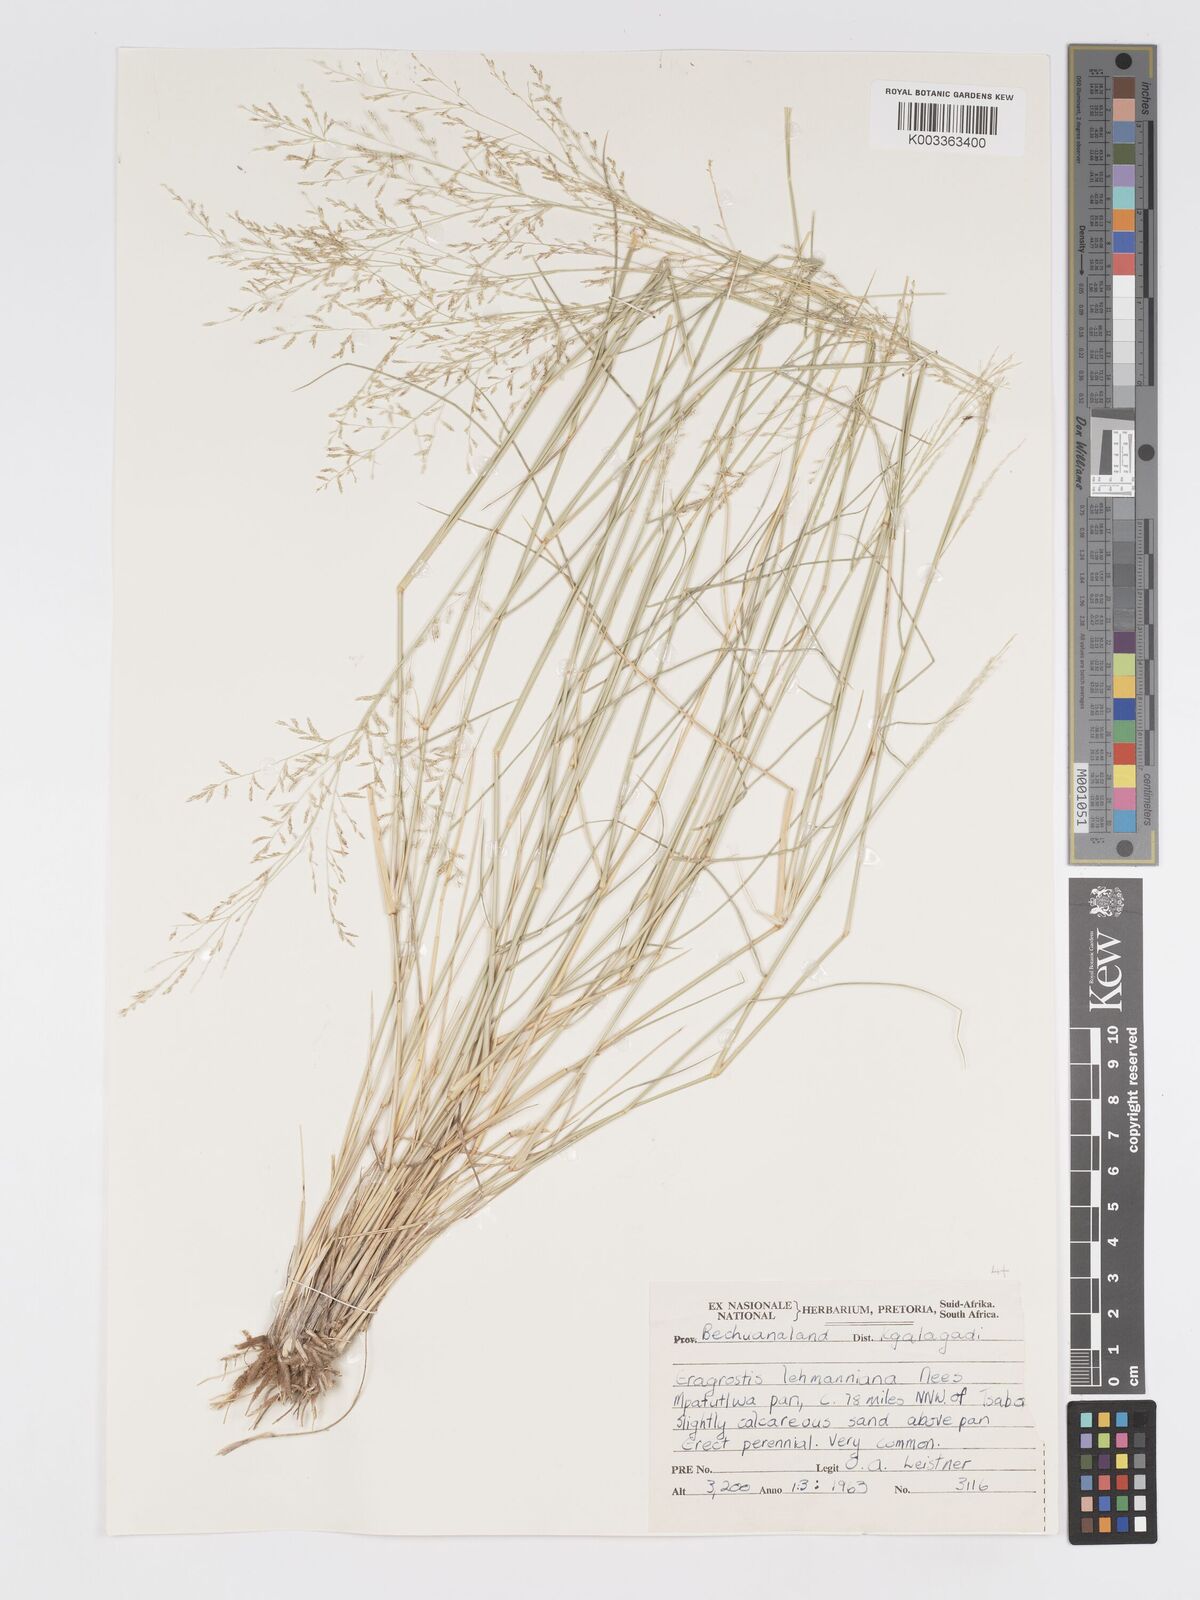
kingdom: Plantae
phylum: Tracheophyta
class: Liliopsida
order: Poales
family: Poaceae
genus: Eragrostis
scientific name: Eragrostis lehmanniana
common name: Lehmann lovegrass
